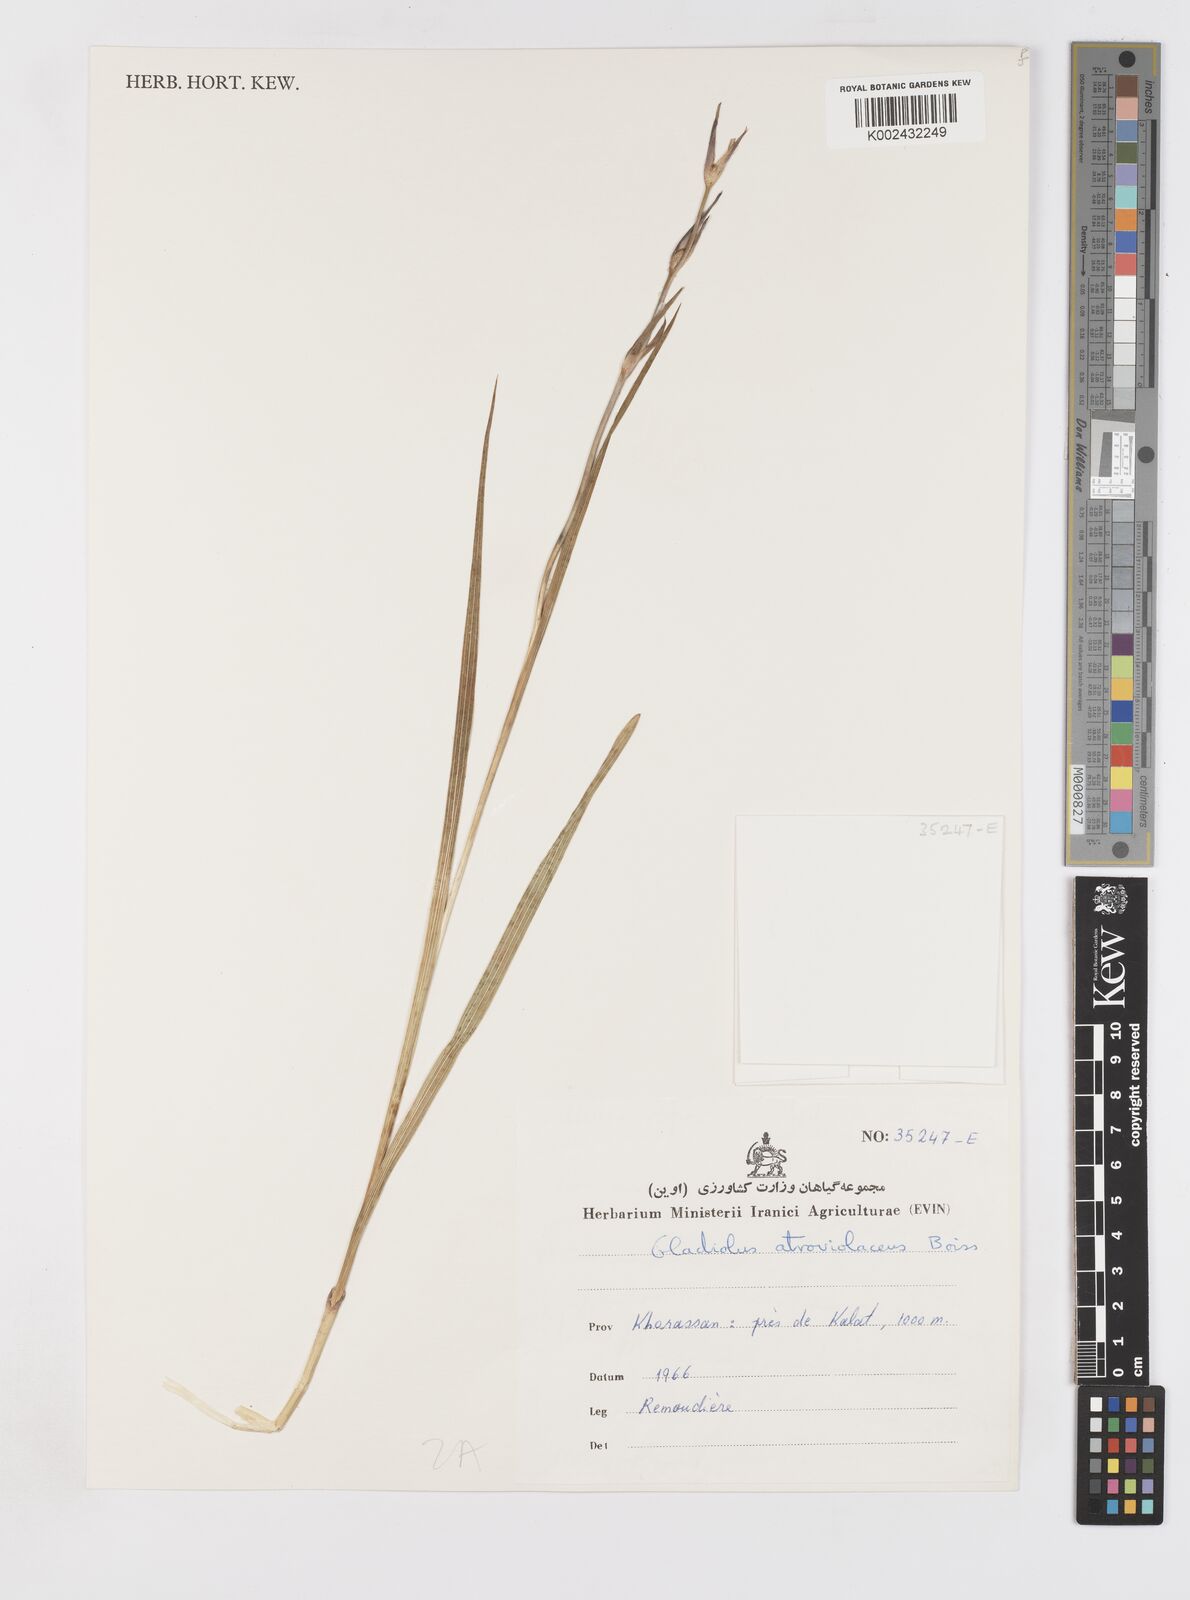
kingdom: Plantae
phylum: Tracheophyta
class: Liliopsida
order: Asparagales
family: Iridaceae
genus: Gladiolus
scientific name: Gladiolus atroviolaceus
